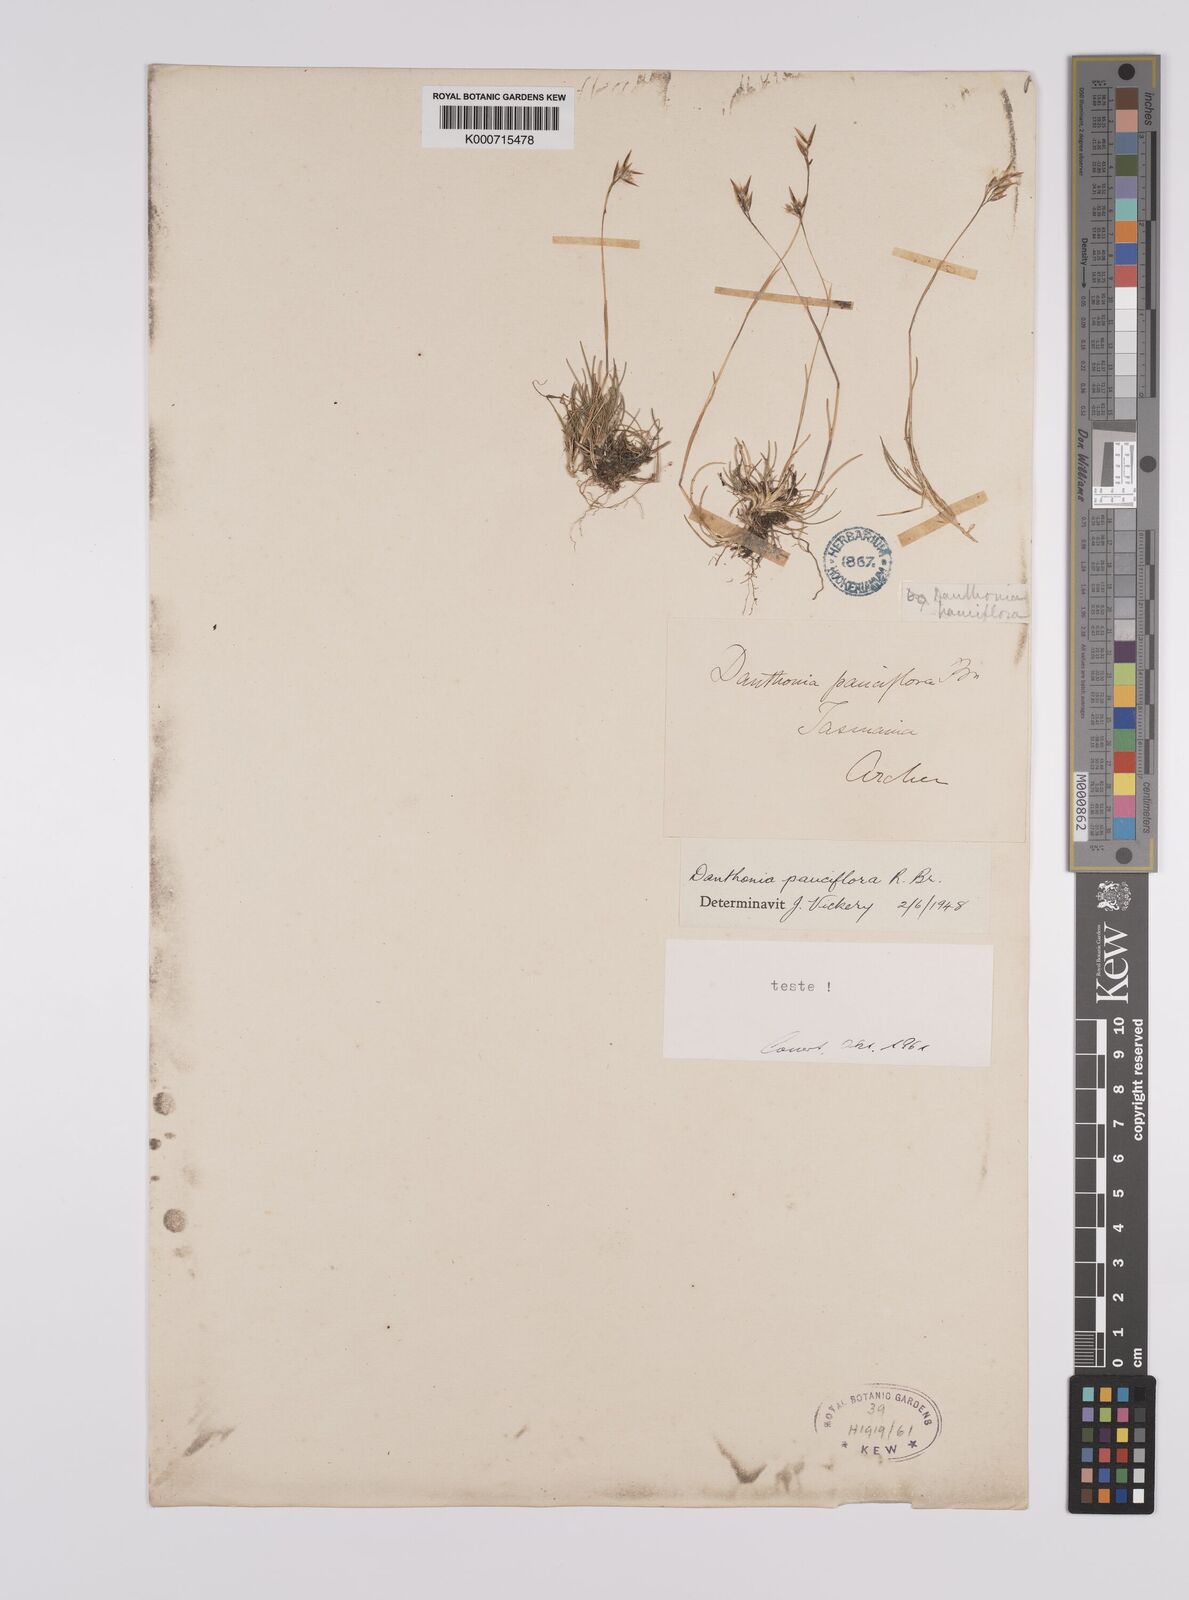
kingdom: Plantae
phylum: Tracheophyta
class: Liliopsida
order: Poales
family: Poaceae
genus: Rytidosperma
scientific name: Rytidosperma pauciflorum
